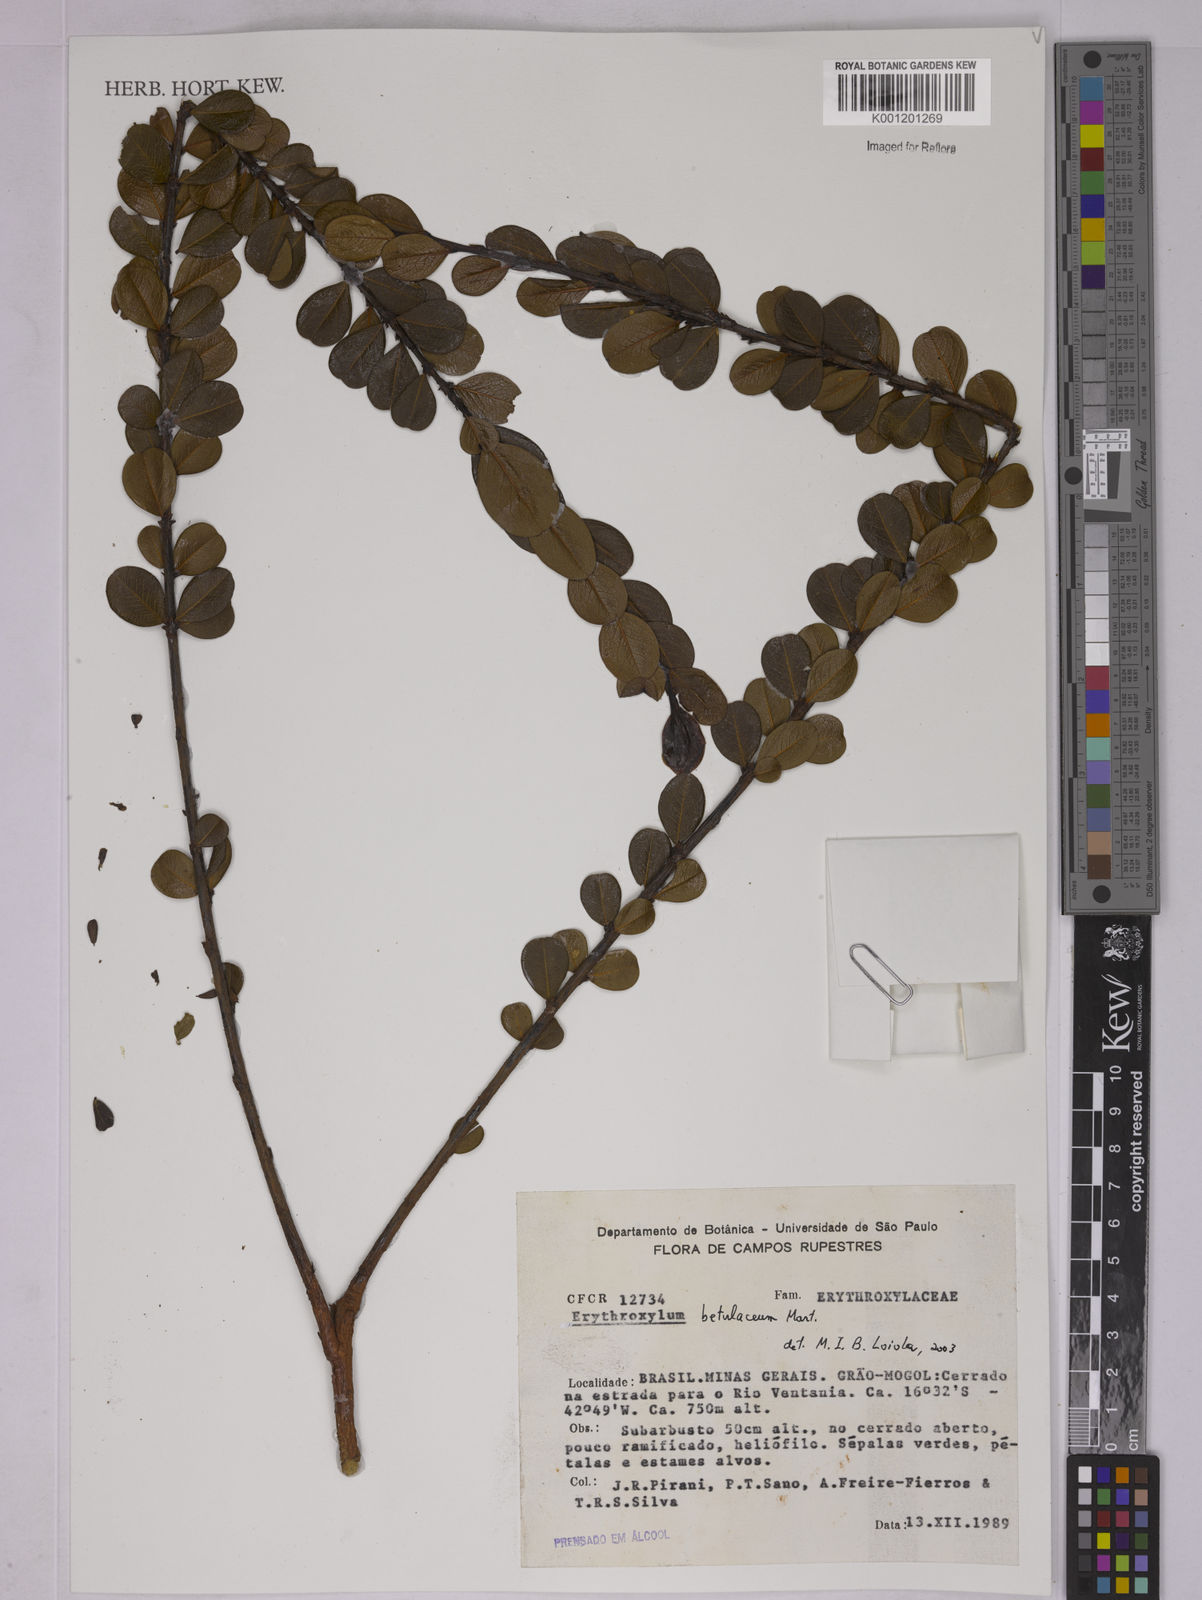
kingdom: Plantae
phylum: Tracheophyta
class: Magnoliopsida
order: Malpighiales
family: Erythroxylaceae
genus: Erythroxylum
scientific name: Erythroxylum betulaceum
